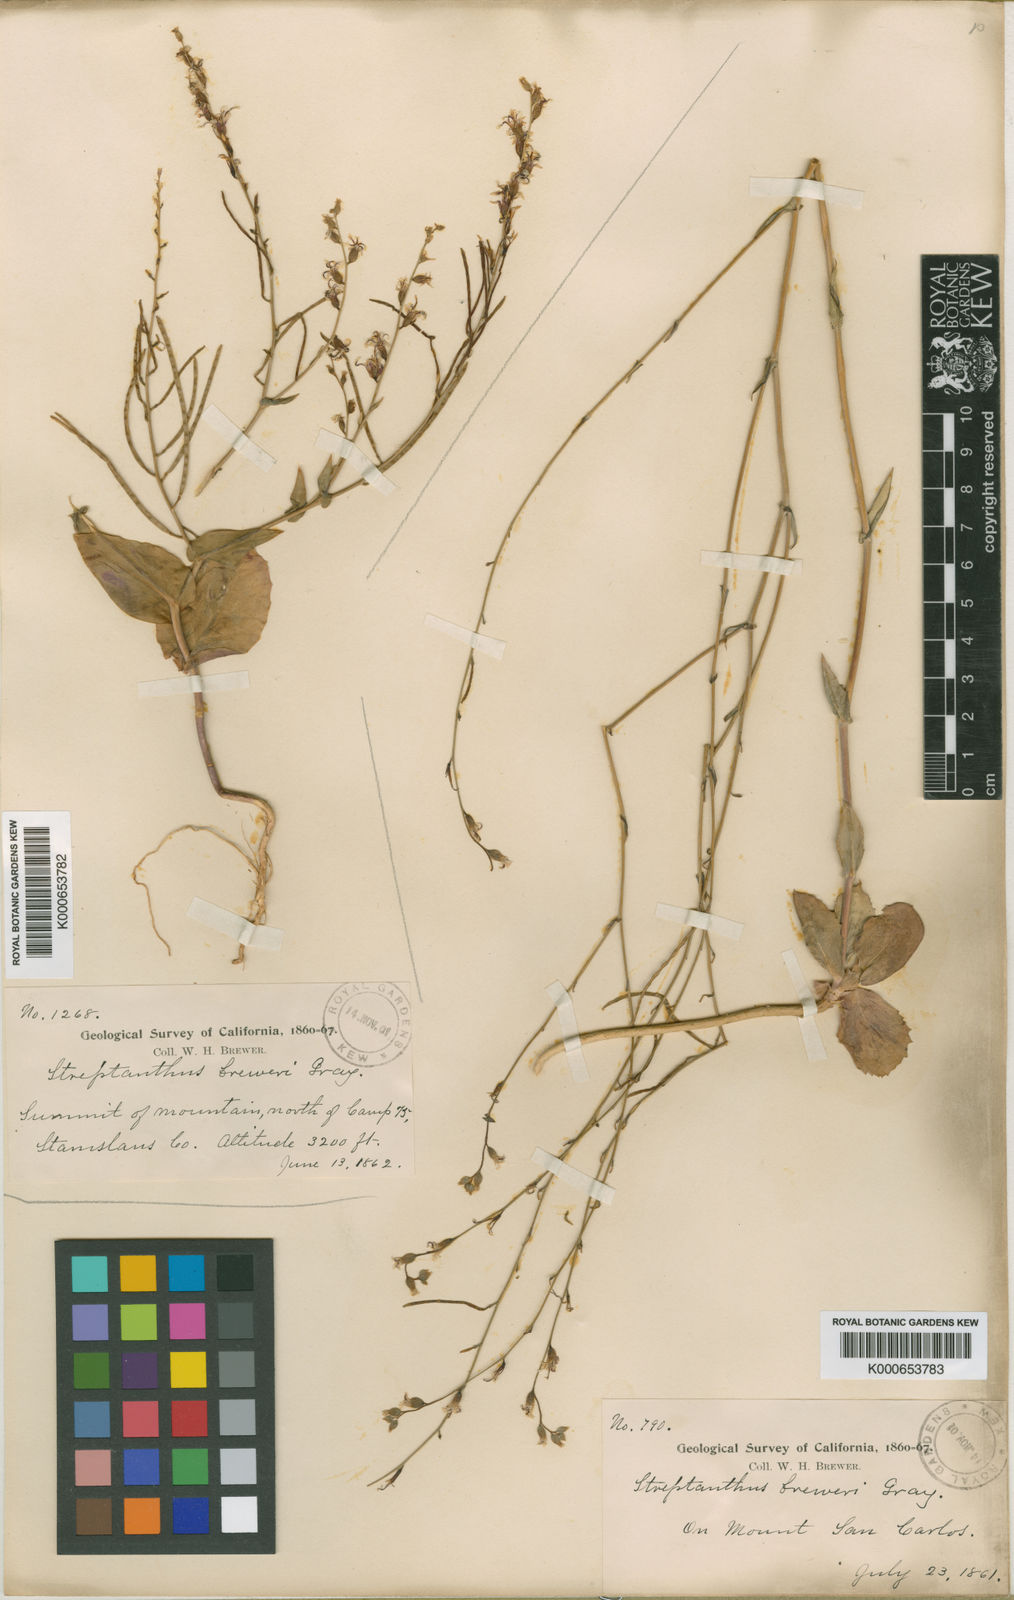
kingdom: Plantae
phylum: Tracheophyta
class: Magnoliopsida
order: Brassicales
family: Brassicaceae
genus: Streptanthus
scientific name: Streptanthus breweri
